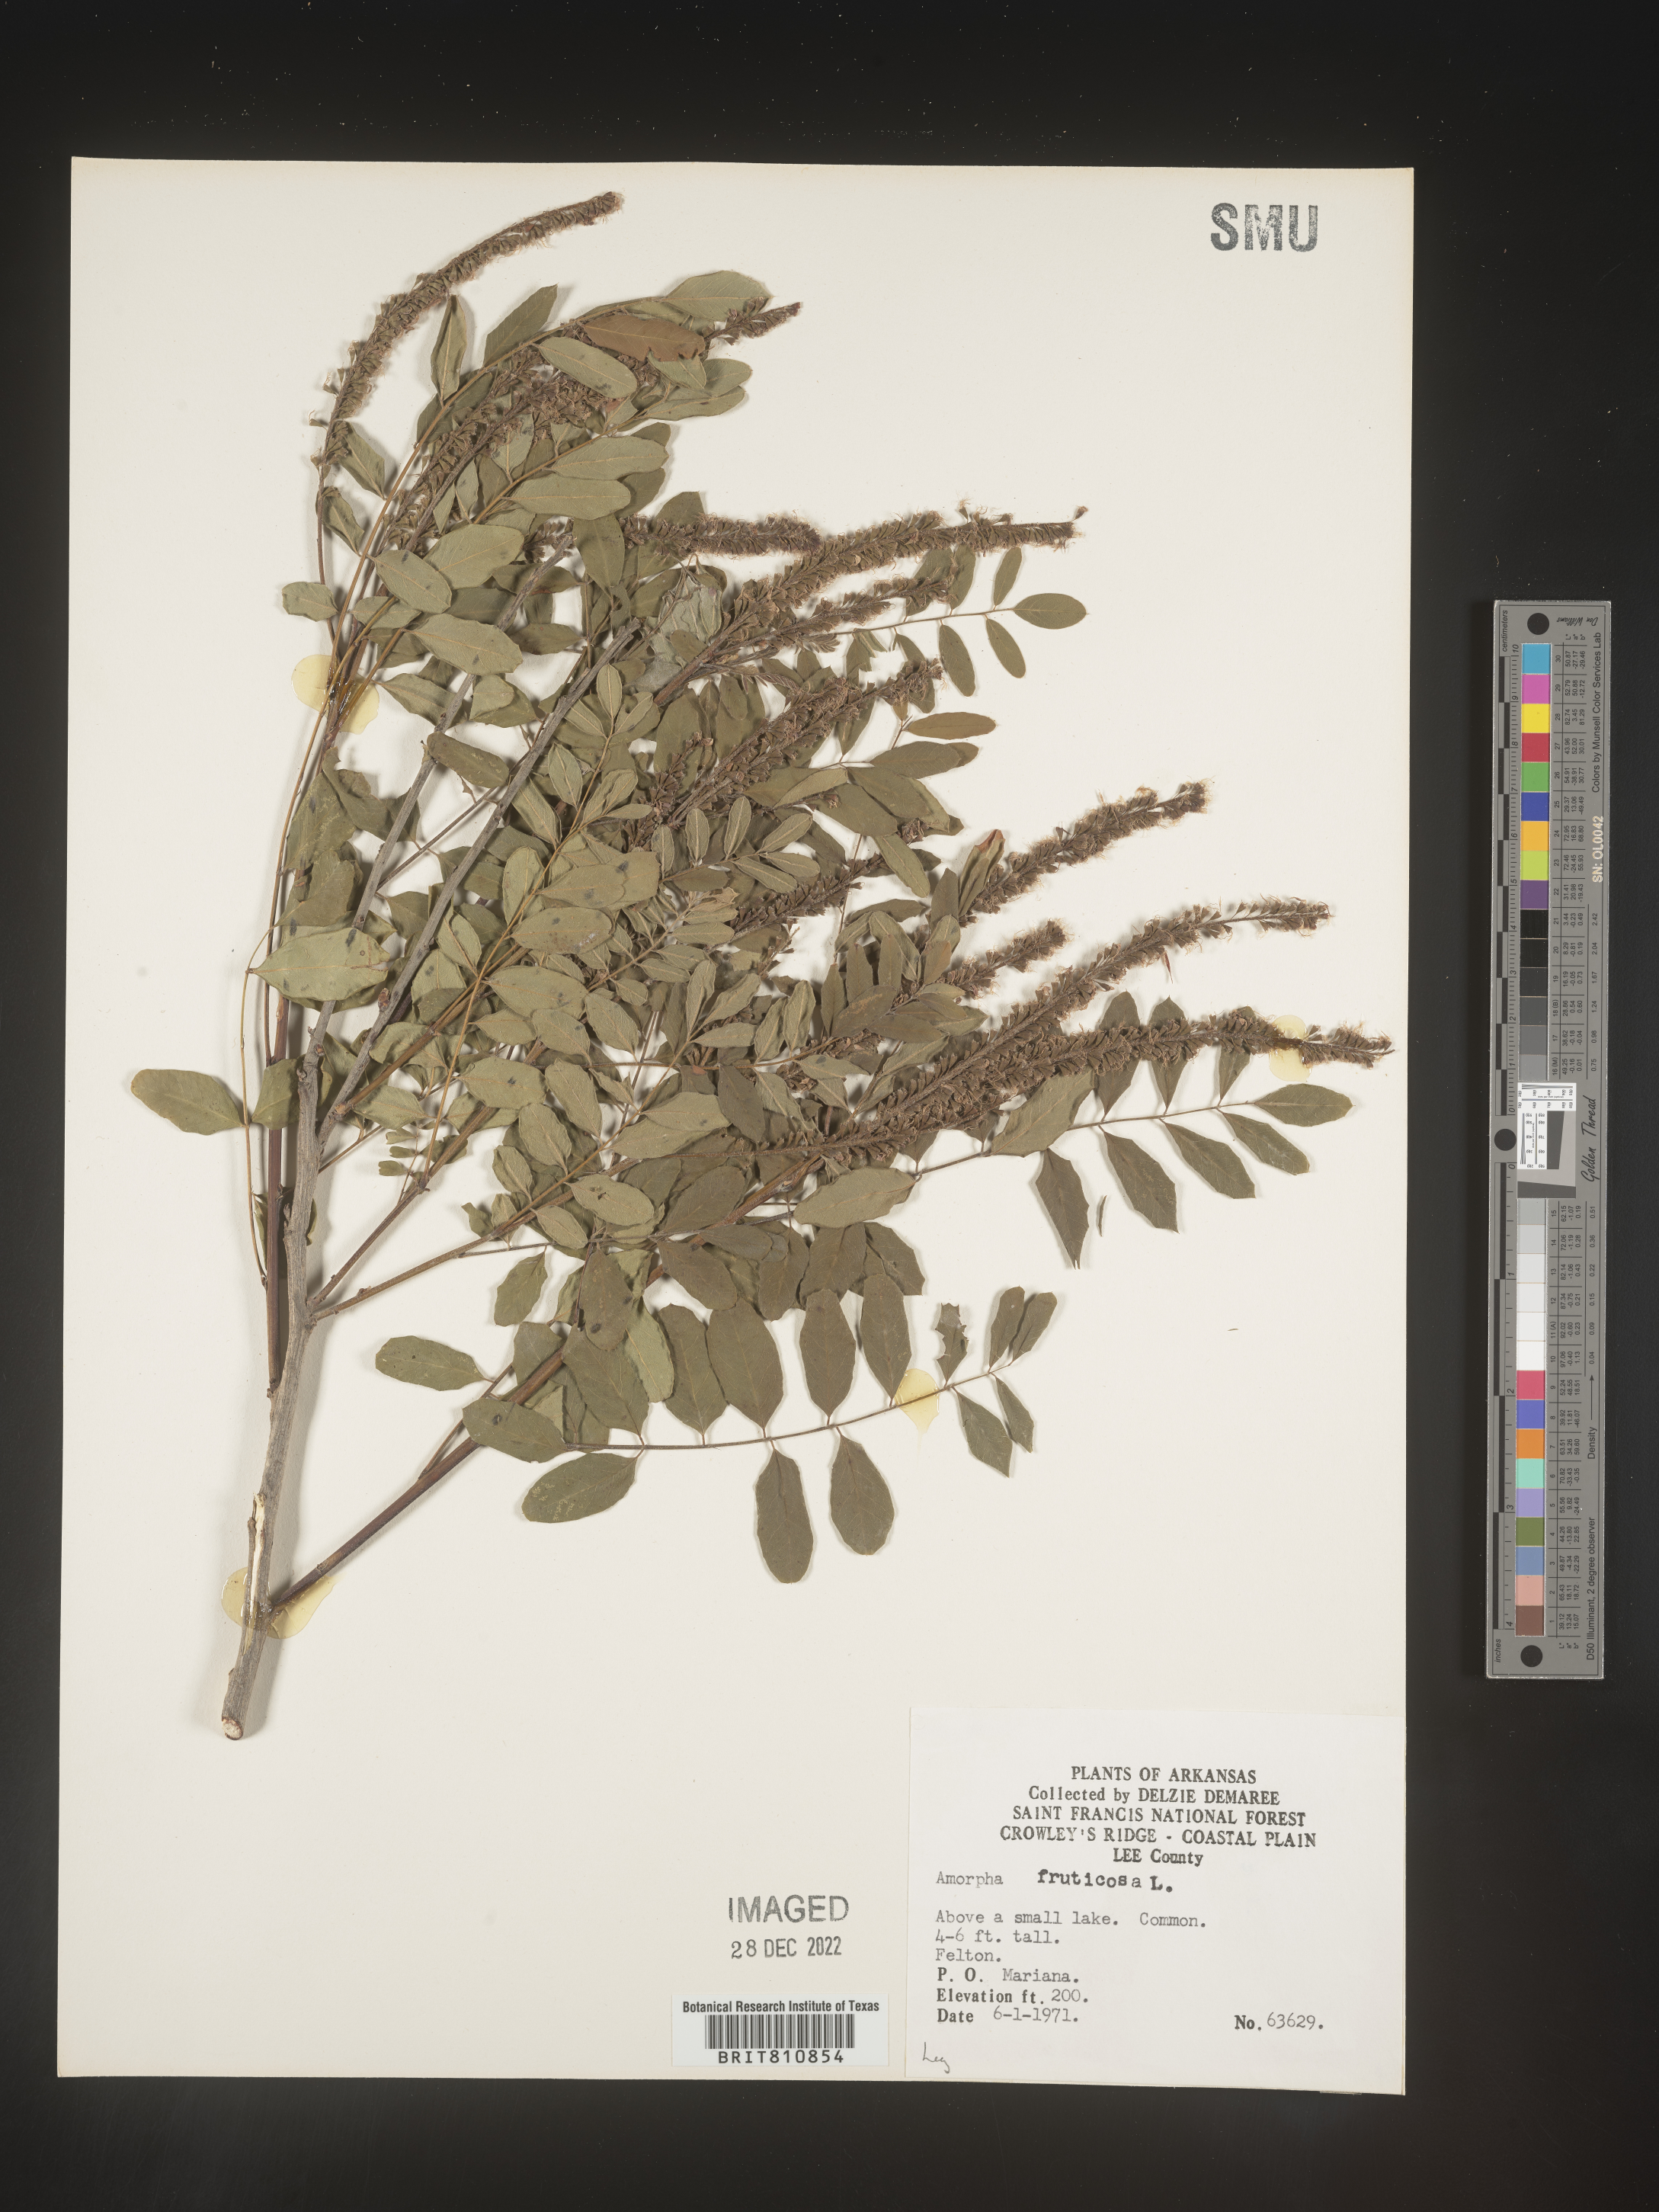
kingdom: Plantae
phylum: Tracheophyta
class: Magnoliopsida
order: Fabales
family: Fabaceae
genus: Amorpha
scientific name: Amorpha fruticosa
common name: False indigo
